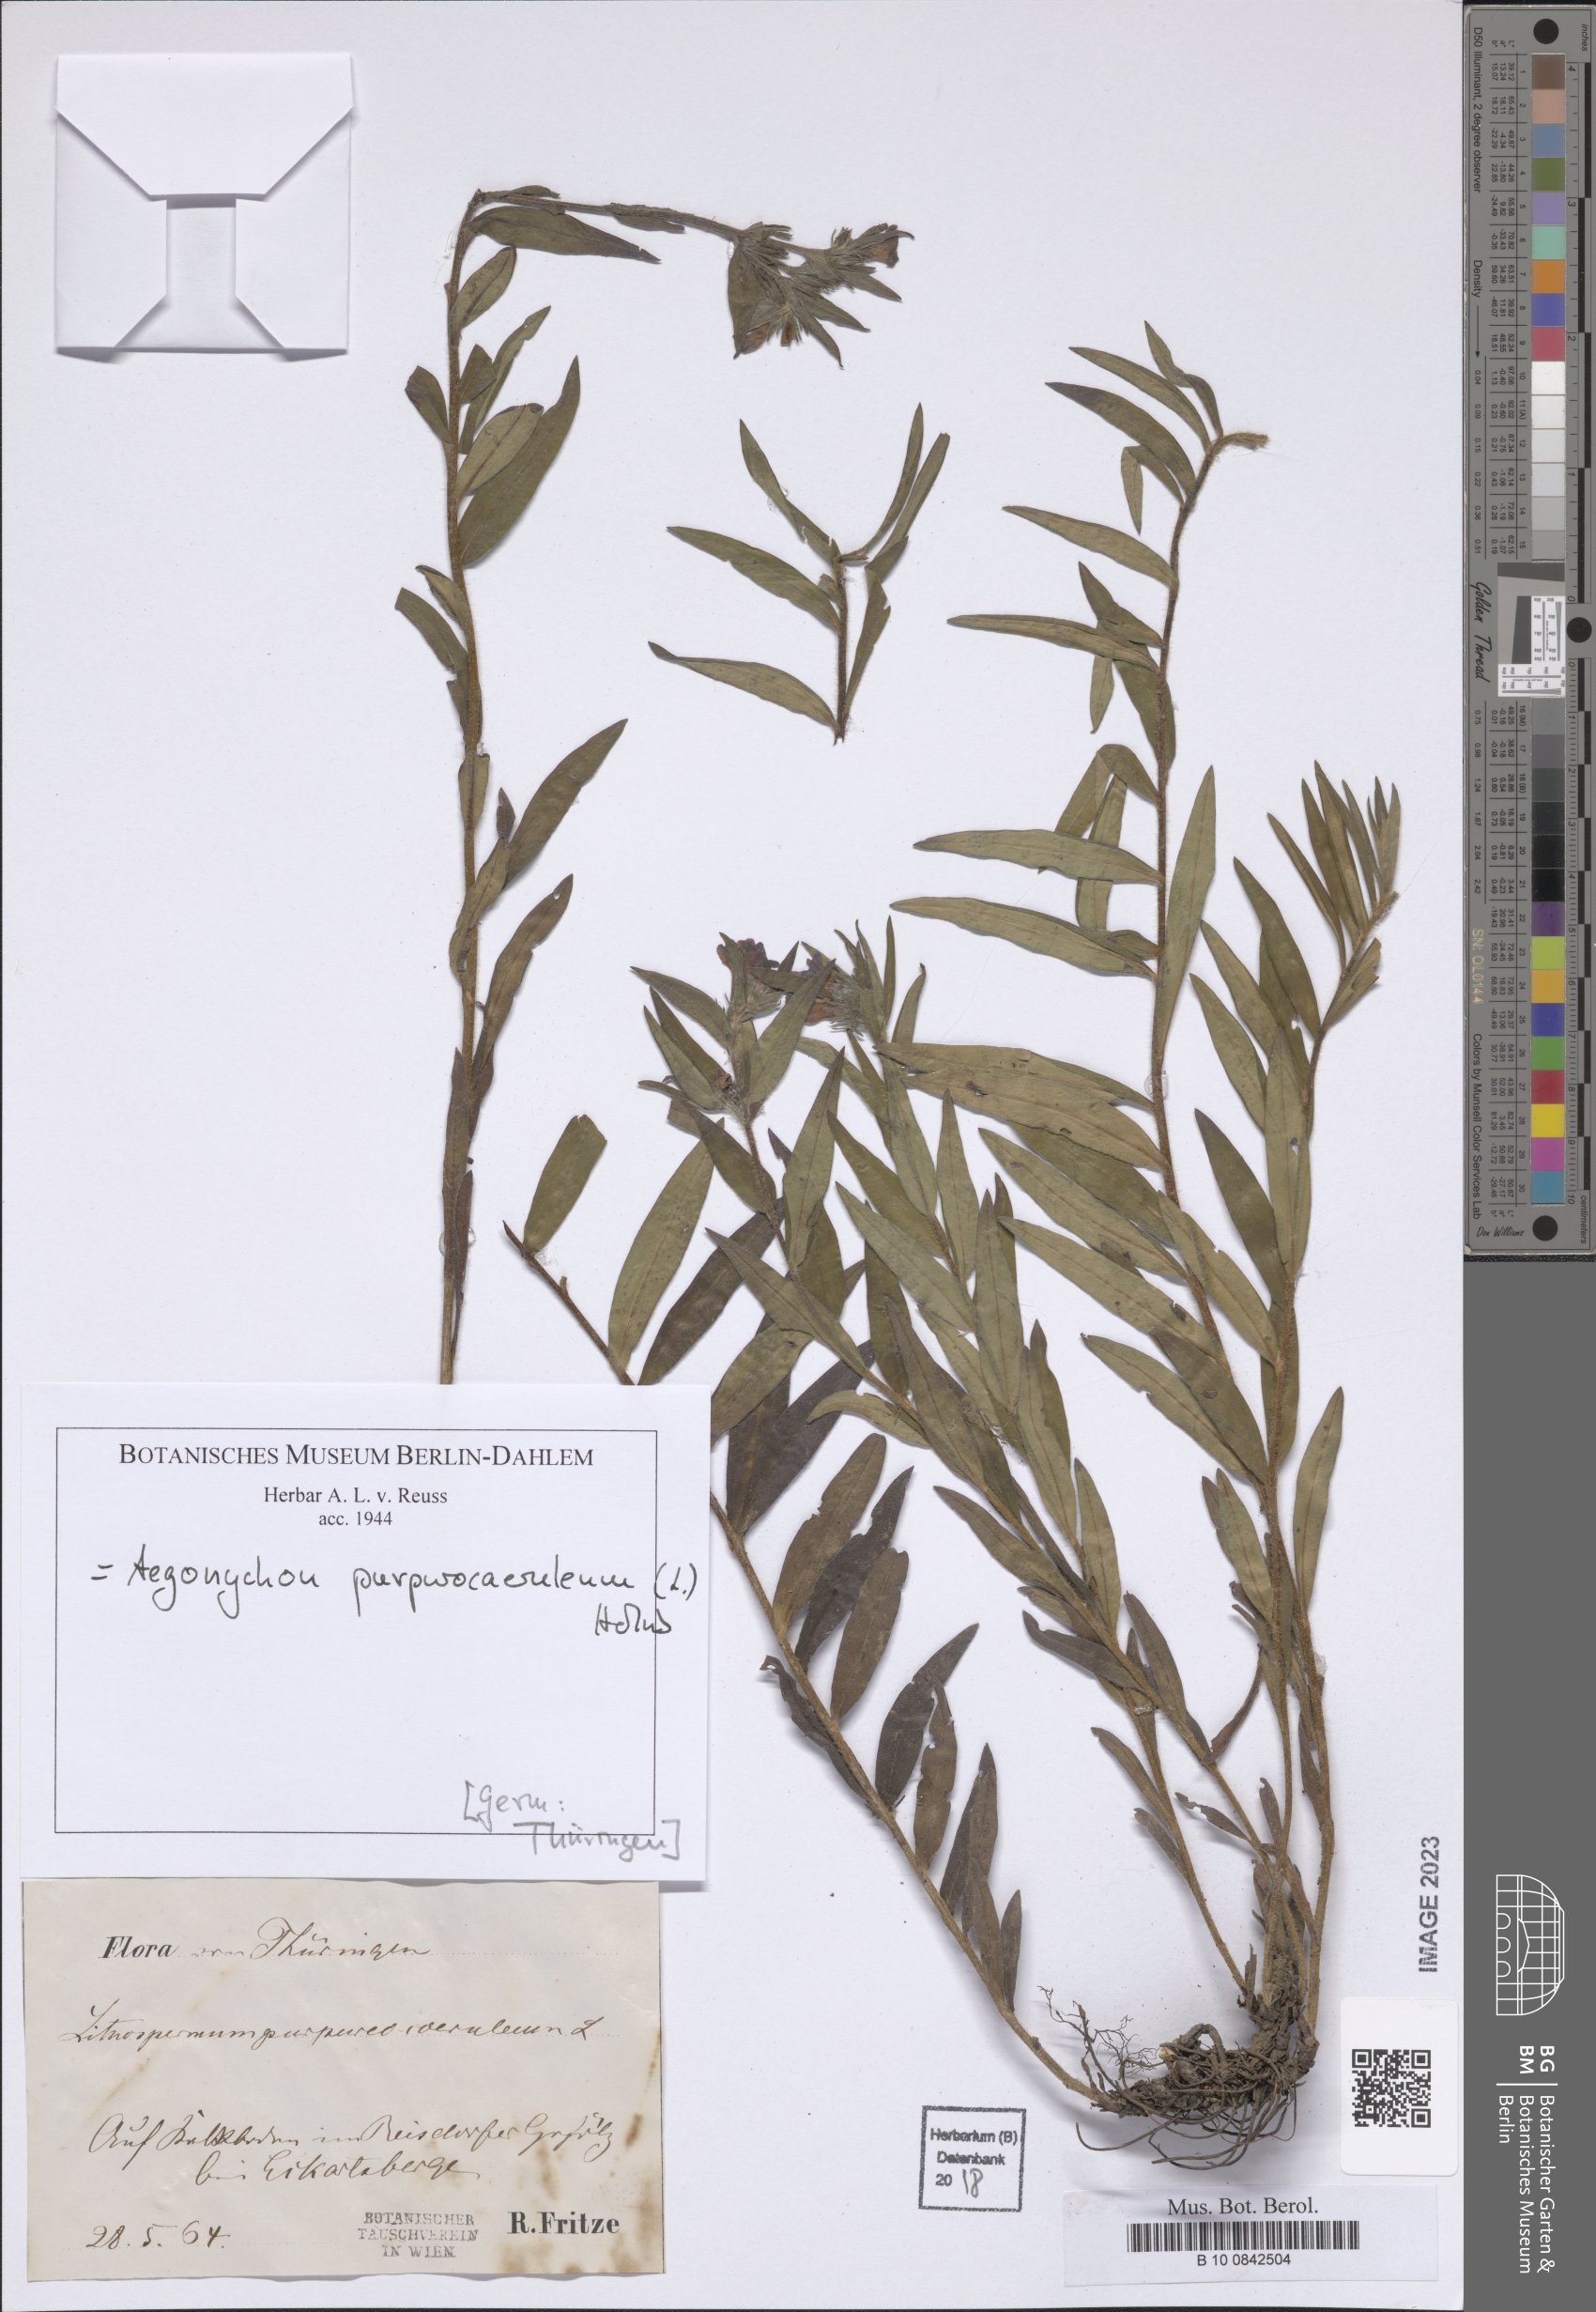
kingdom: Plantae
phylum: Tracheophyta
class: Magnoliopsida
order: Boraginales
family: Boraginaceae
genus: Aegonychon
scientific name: Aegonychon purpurocaeruleum
